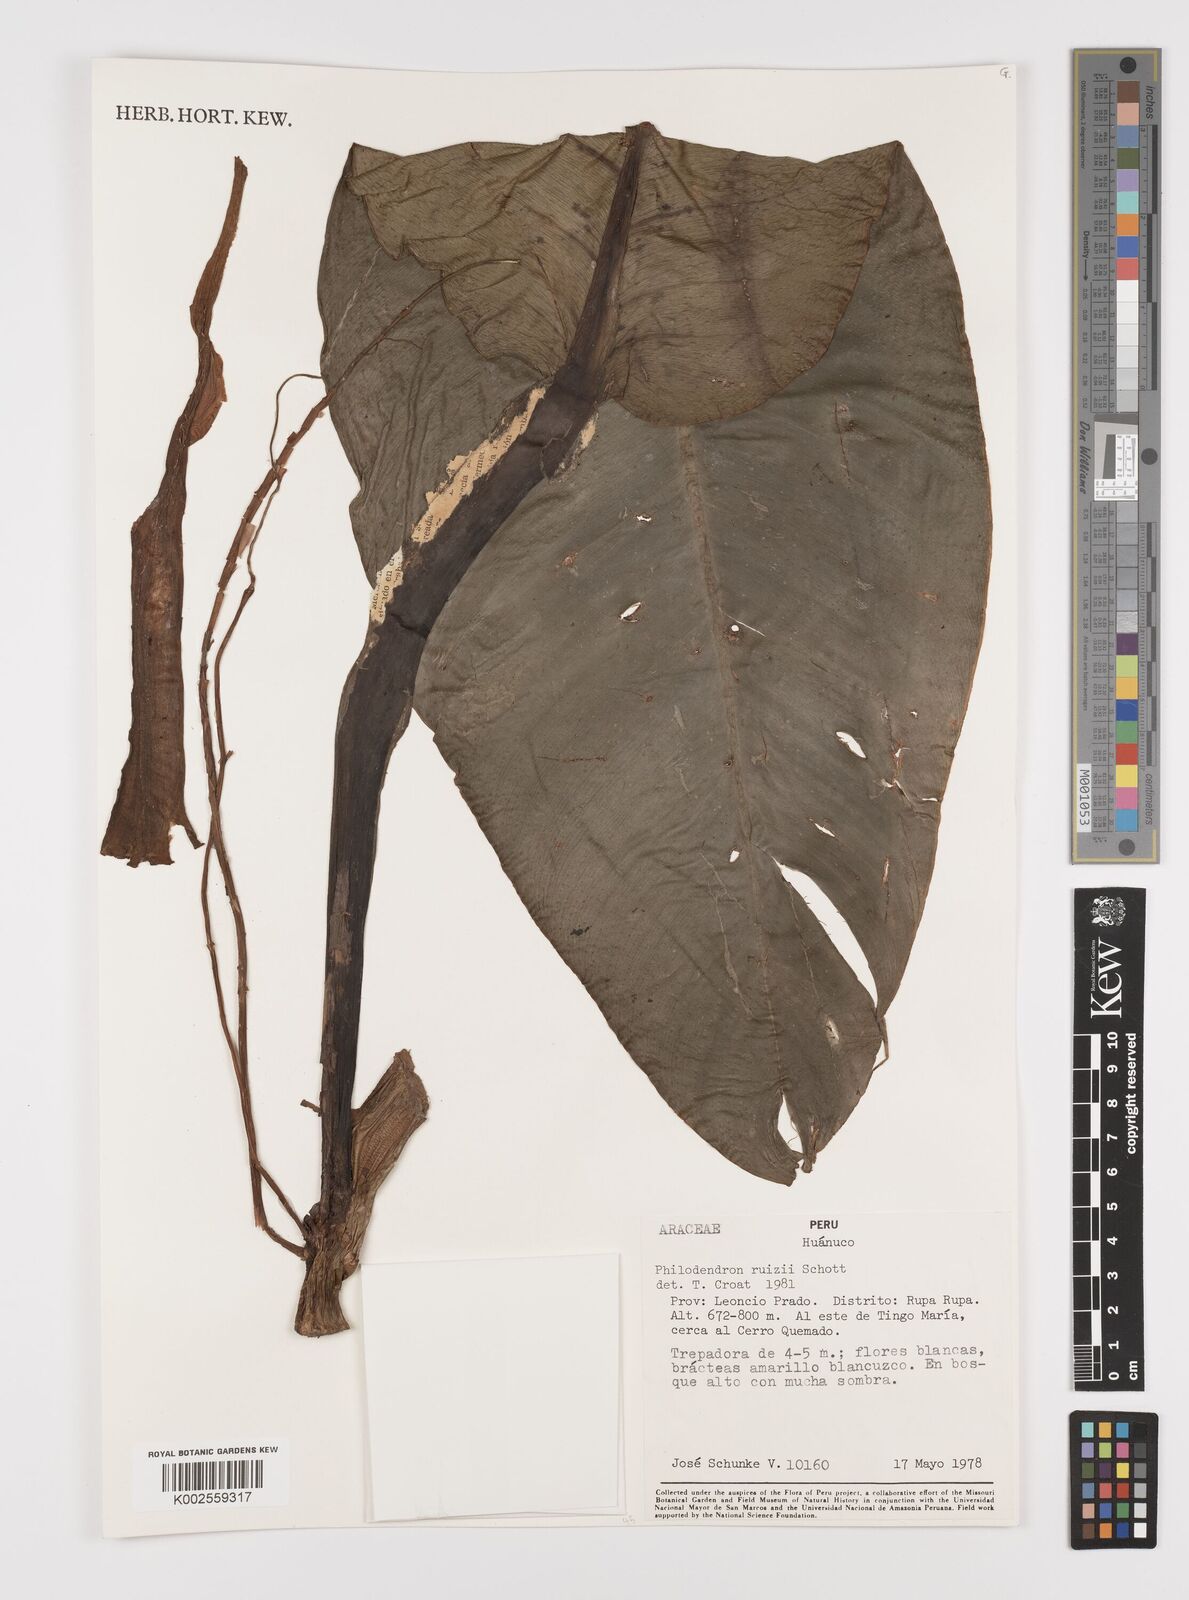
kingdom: Plantae
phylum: Tracheophyta
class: Liliopsida
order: Alismatales
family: Araceae
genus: Philodendron
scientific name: Philodendron ruizii
